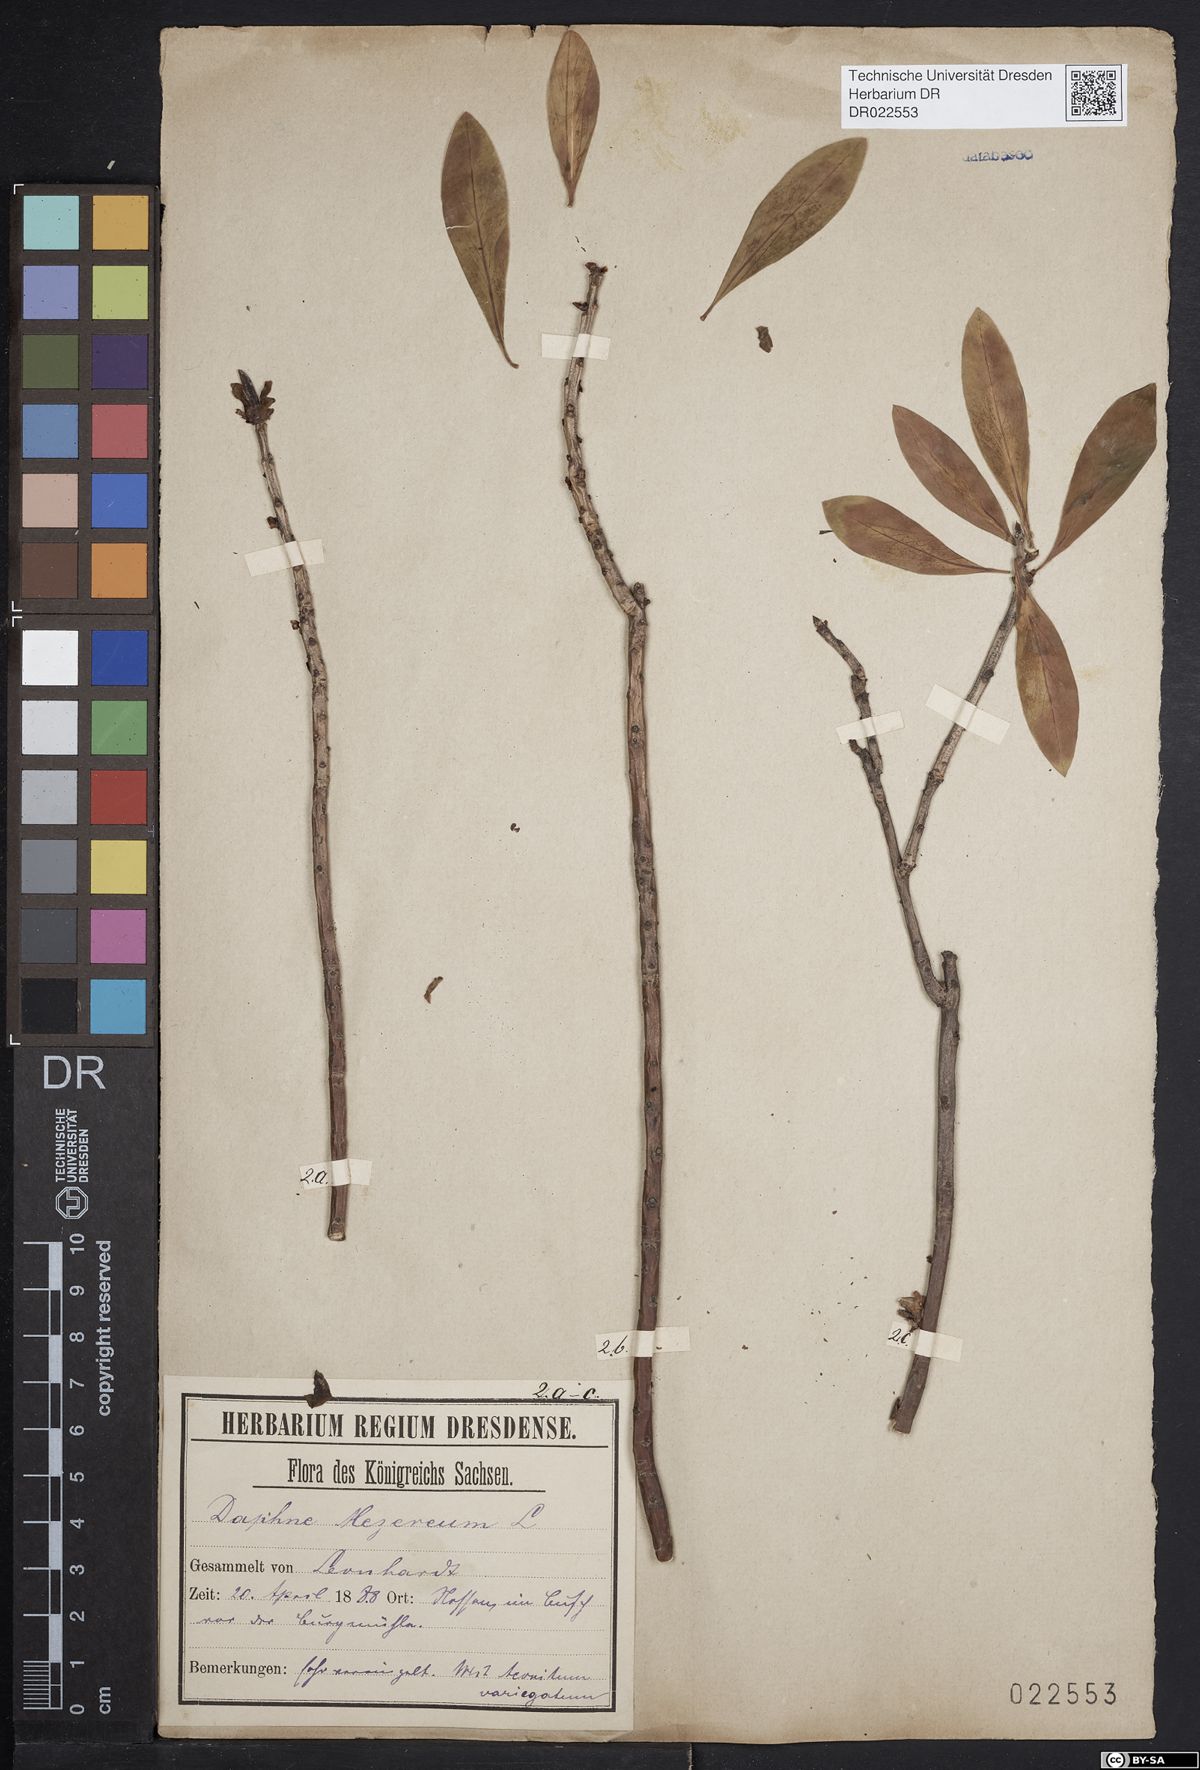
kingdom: Plantae
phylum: Tracheophyta
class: Magnoliopsida
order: Malvales
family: Thymelaeaceae
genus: Daphne
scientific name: Daphne mezereum
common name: Mezereon
